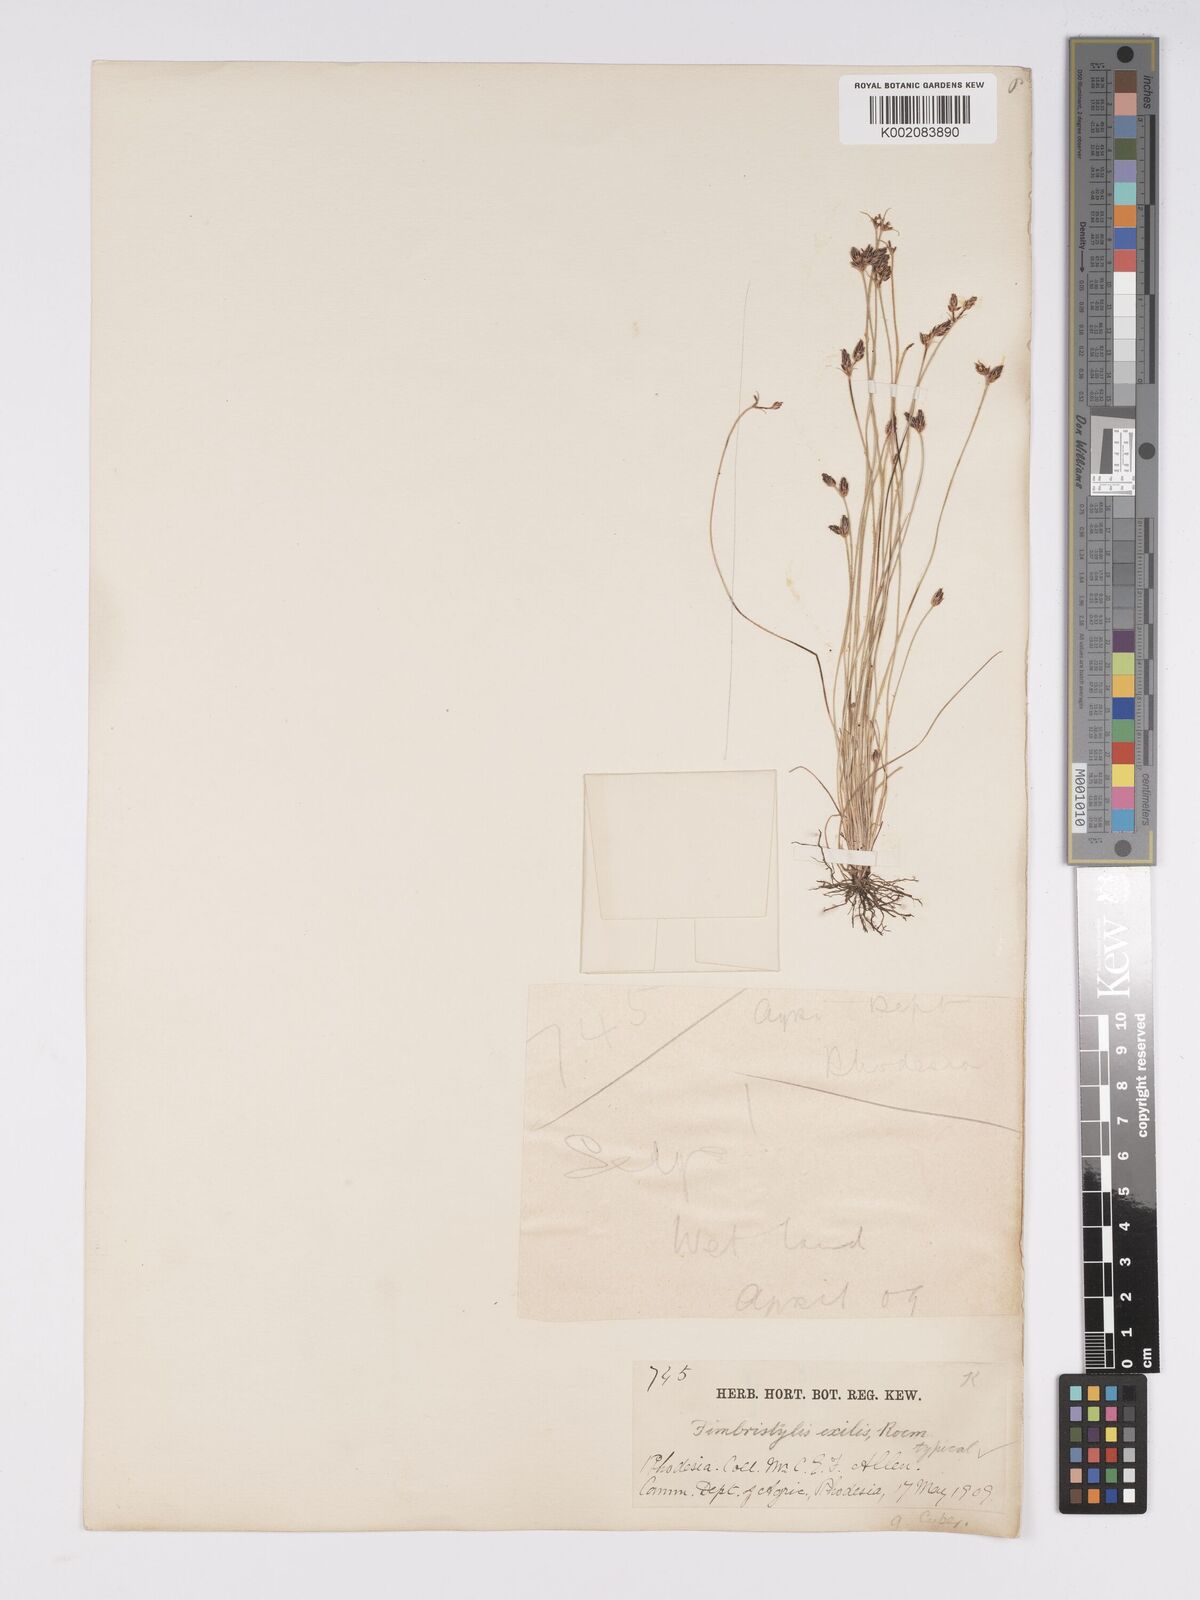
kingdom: Plantae
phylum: Tracheophyta
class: Liliopsida
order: Poales
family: Cyperaceae
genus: Bulbostylis
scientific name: Bulbostylis hispidula
